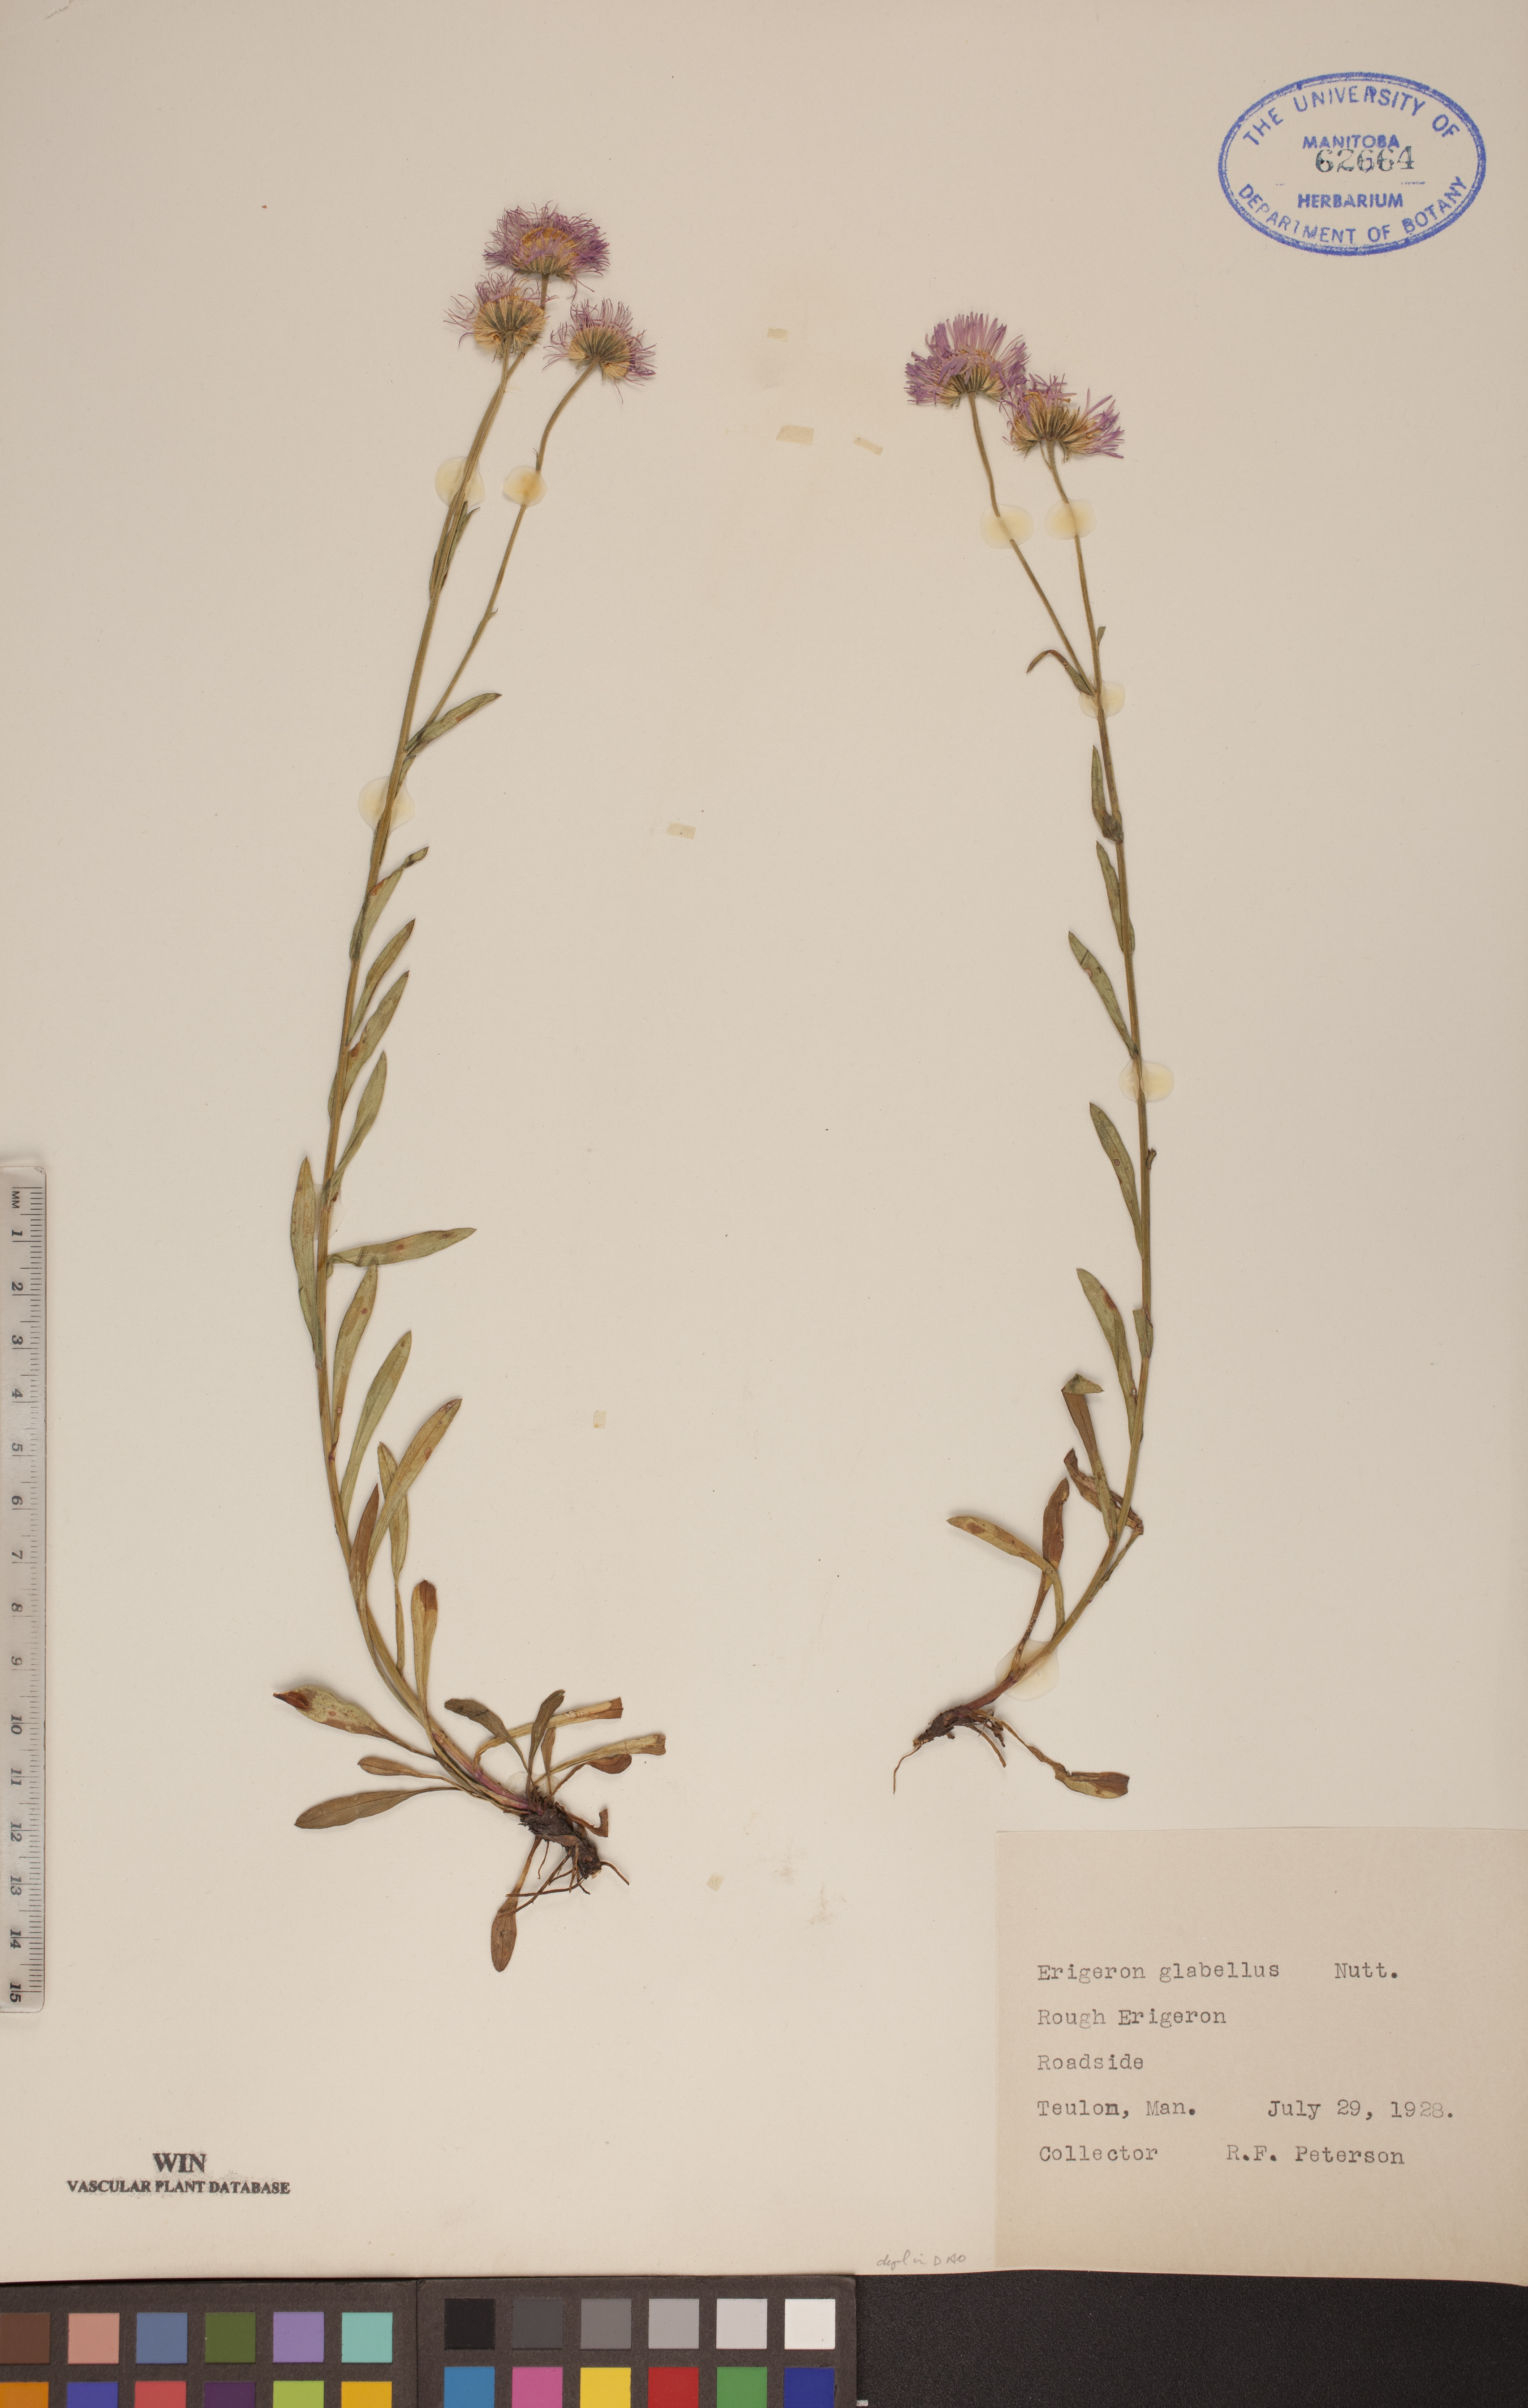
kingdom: Plantae
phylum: Tracheophyta
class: Magnoliopsida
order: Asterales
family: Asteraceae
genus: Erigeron
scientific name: Erigeron glabellus
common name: Smooth fleabane
